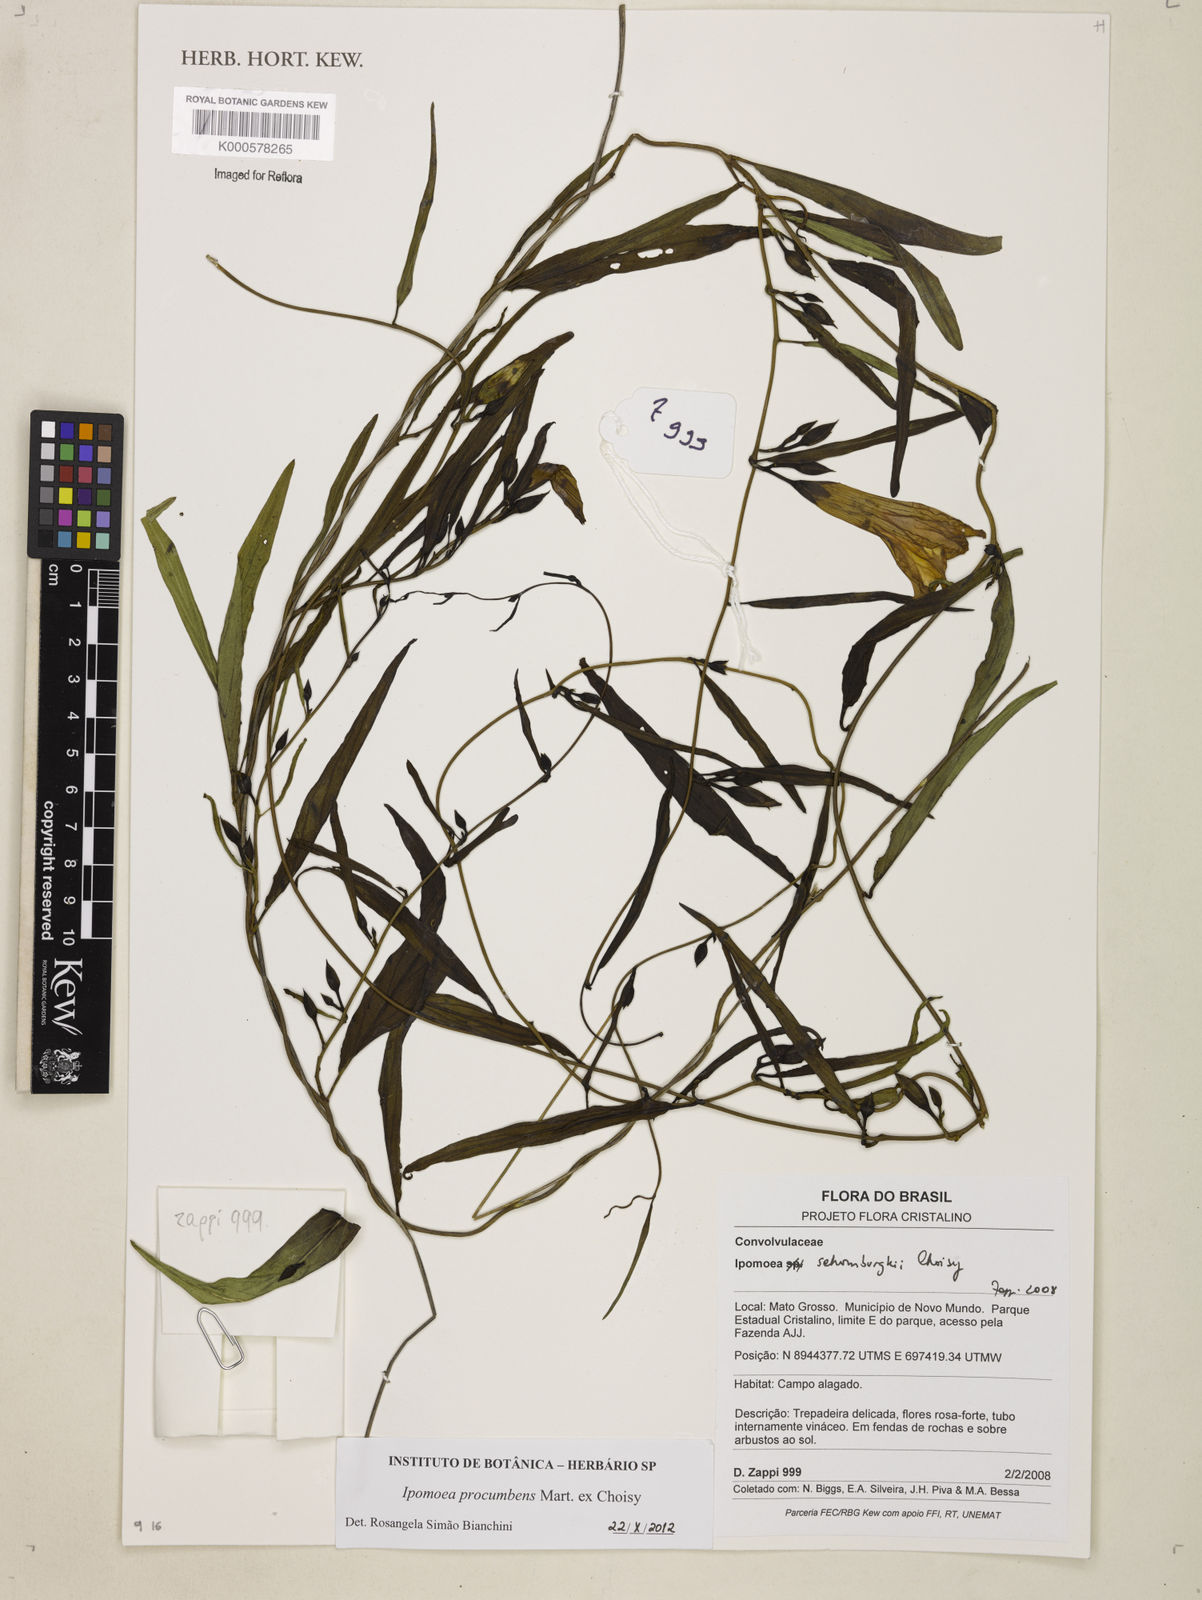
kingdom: Plantae
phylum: Tracheophyta
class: Magnoliopsida
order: Solanales
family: Convolvulaceae
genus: Ipomoea
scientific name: Ipomoea schomburgkii
